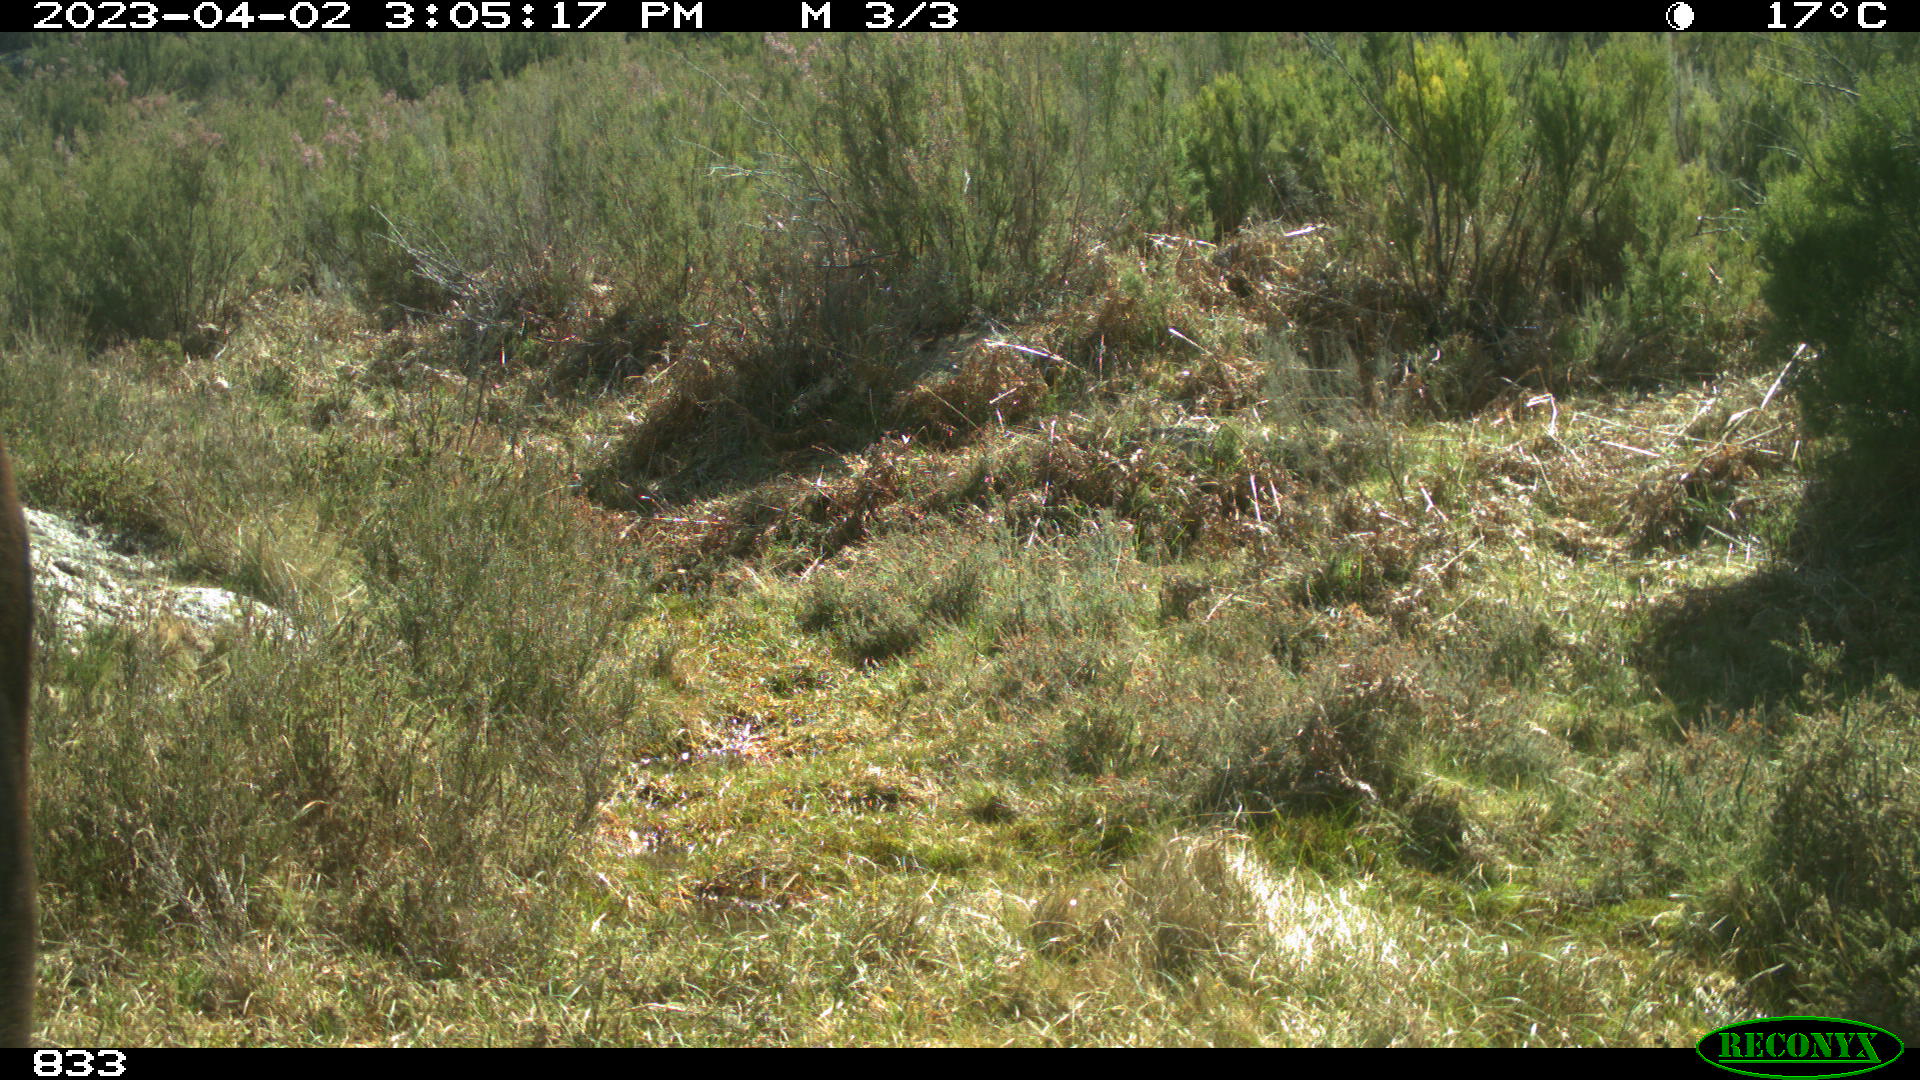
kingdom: Animalia
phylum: Chordata
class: Mammalia
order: Perissodactyla
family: Equidae
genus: Equus
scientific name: Equus caballus
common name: Horse
